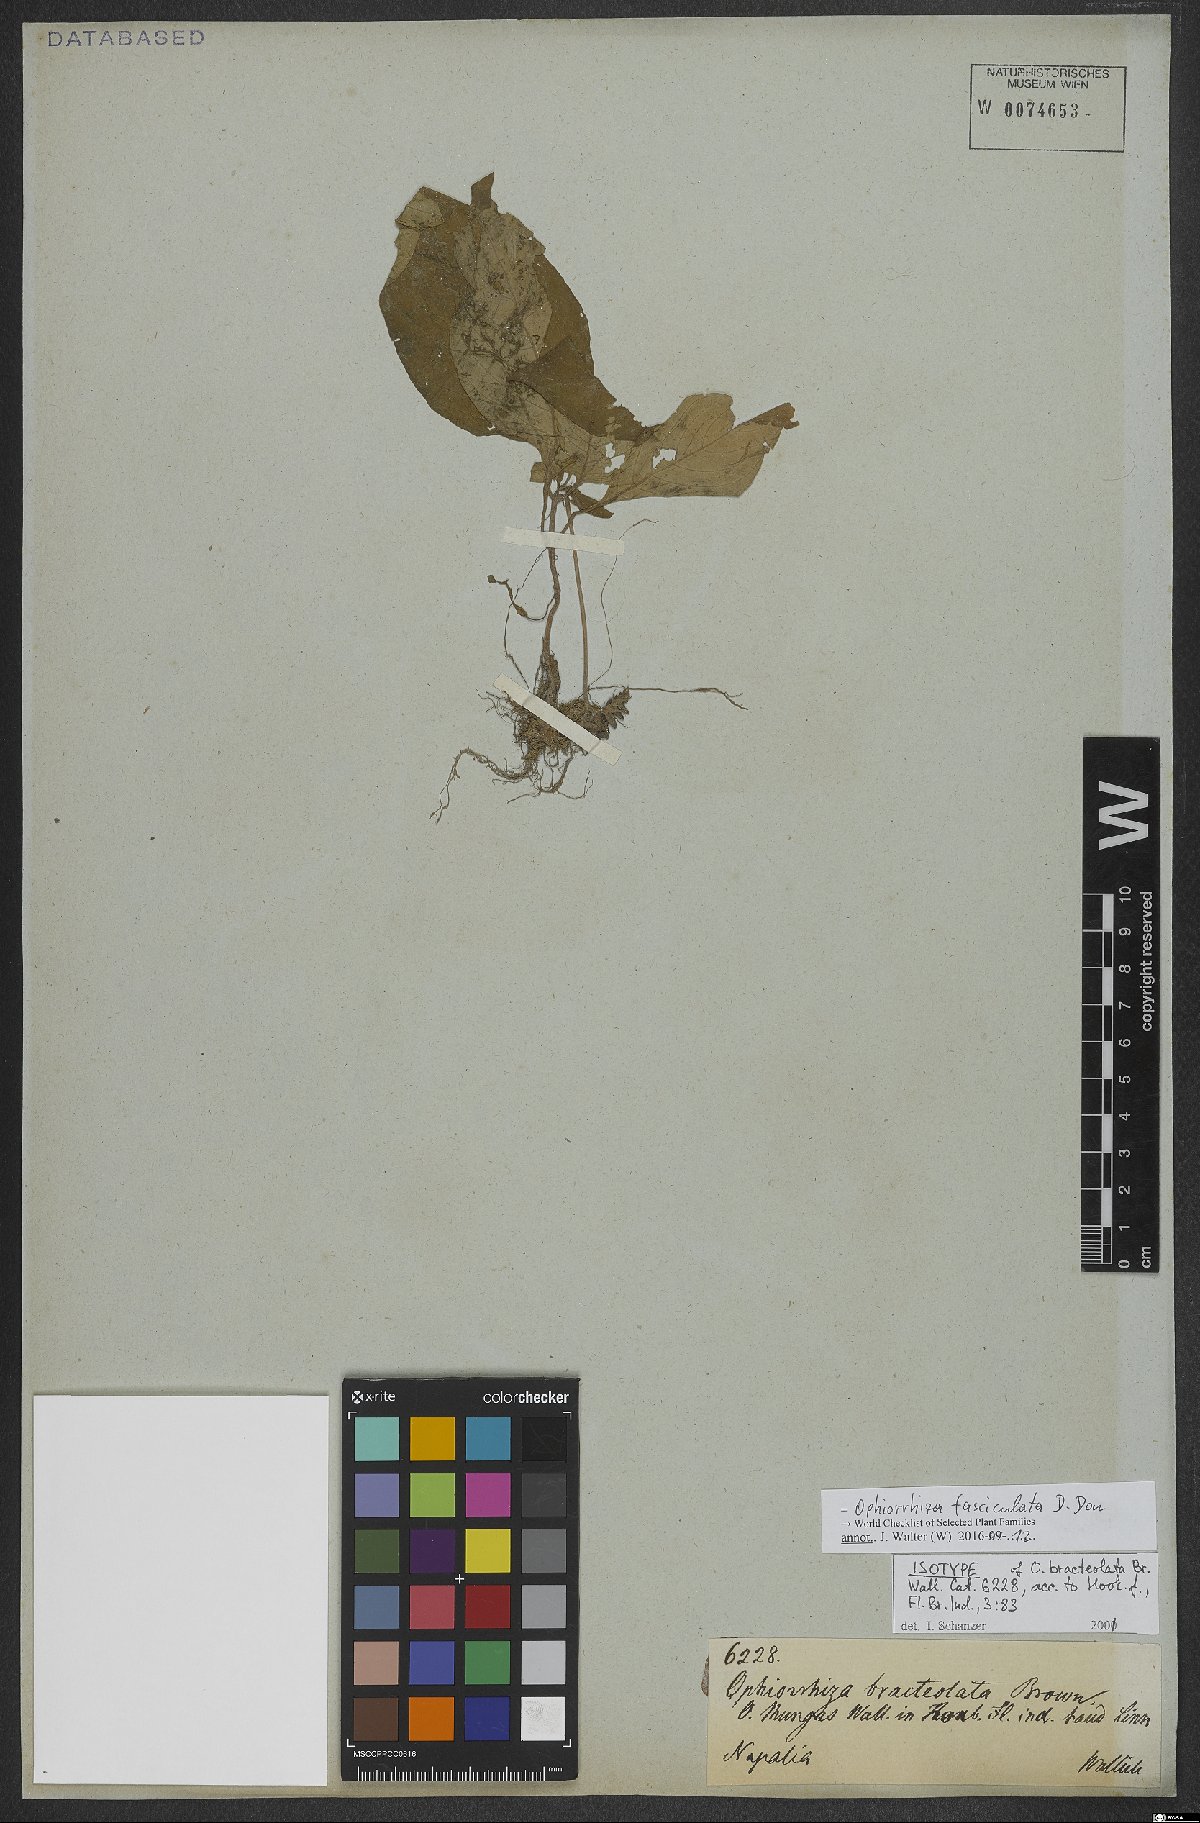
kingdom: Plantae
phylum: Tracheophyta
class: Magnoliopsida
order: Gentianales
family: Rubiaceae
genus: Ophiorrhiza
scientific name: Ophiorrhiza fasciculata
